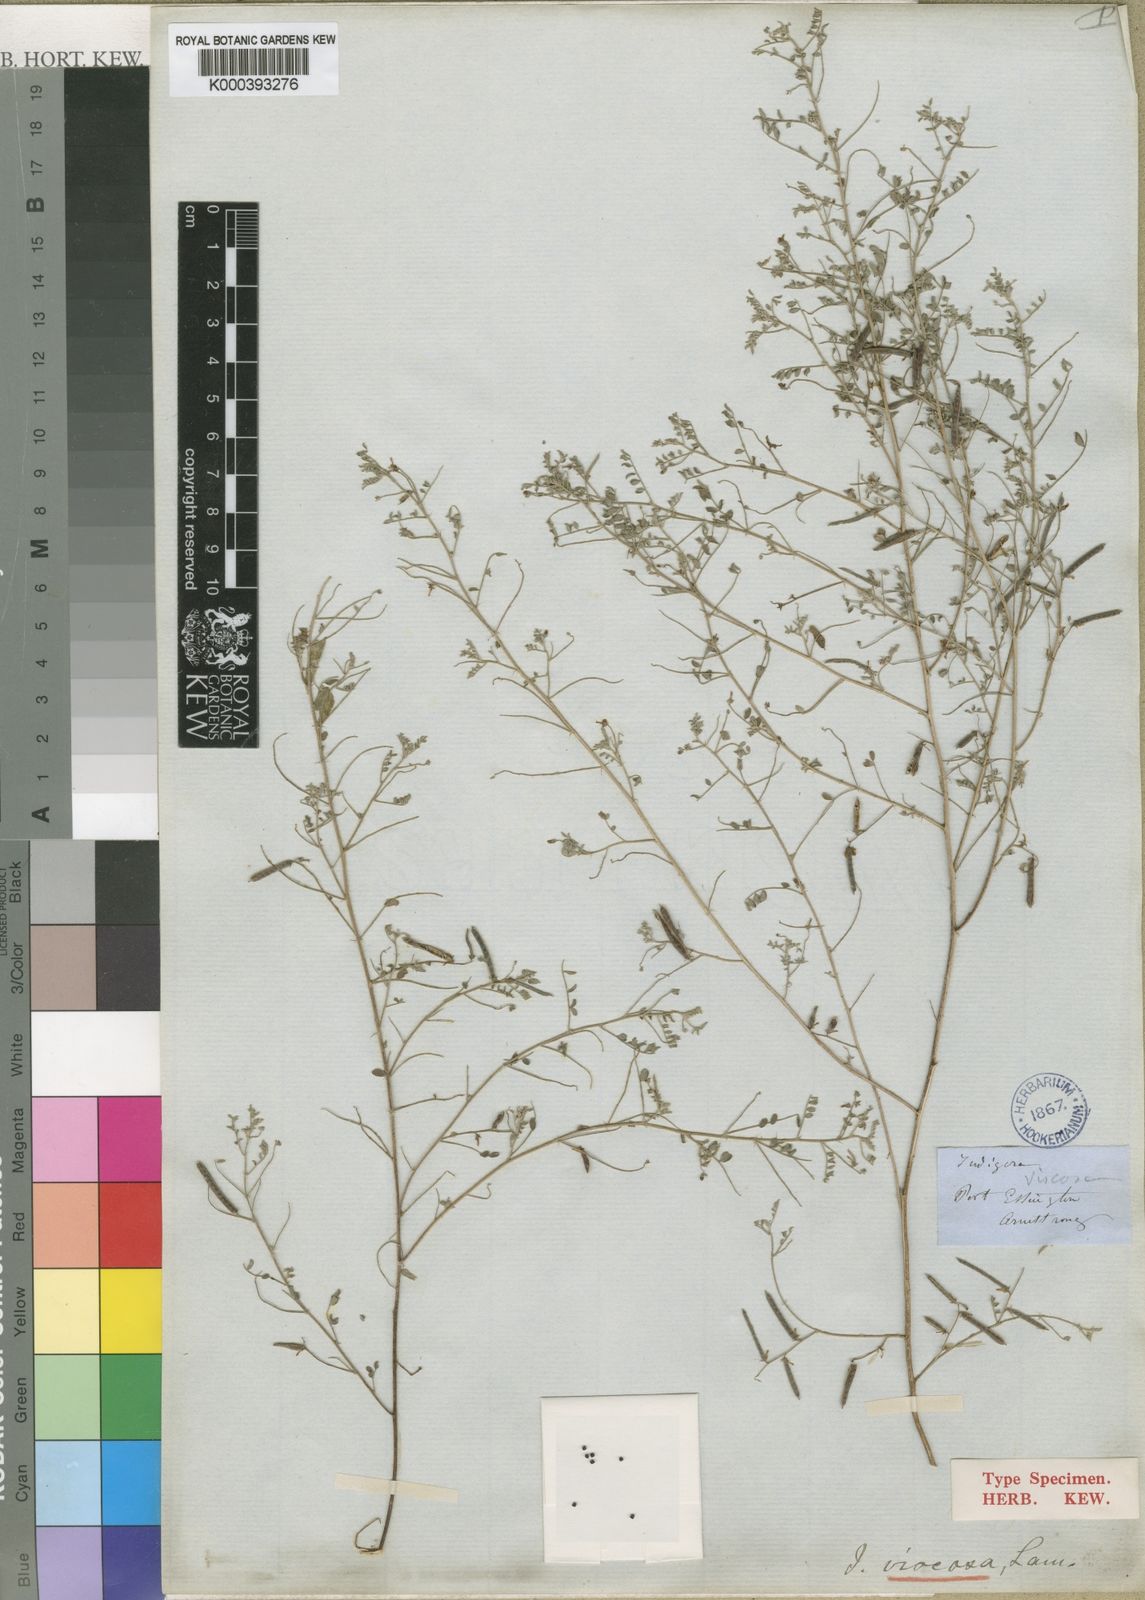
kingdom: Plantae
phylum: Tracheophyta
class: Magnoliopsida
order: Fabales
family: Fabaceae
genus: Indigofera
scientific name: Indigofera colutea
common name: Rusty indigo
